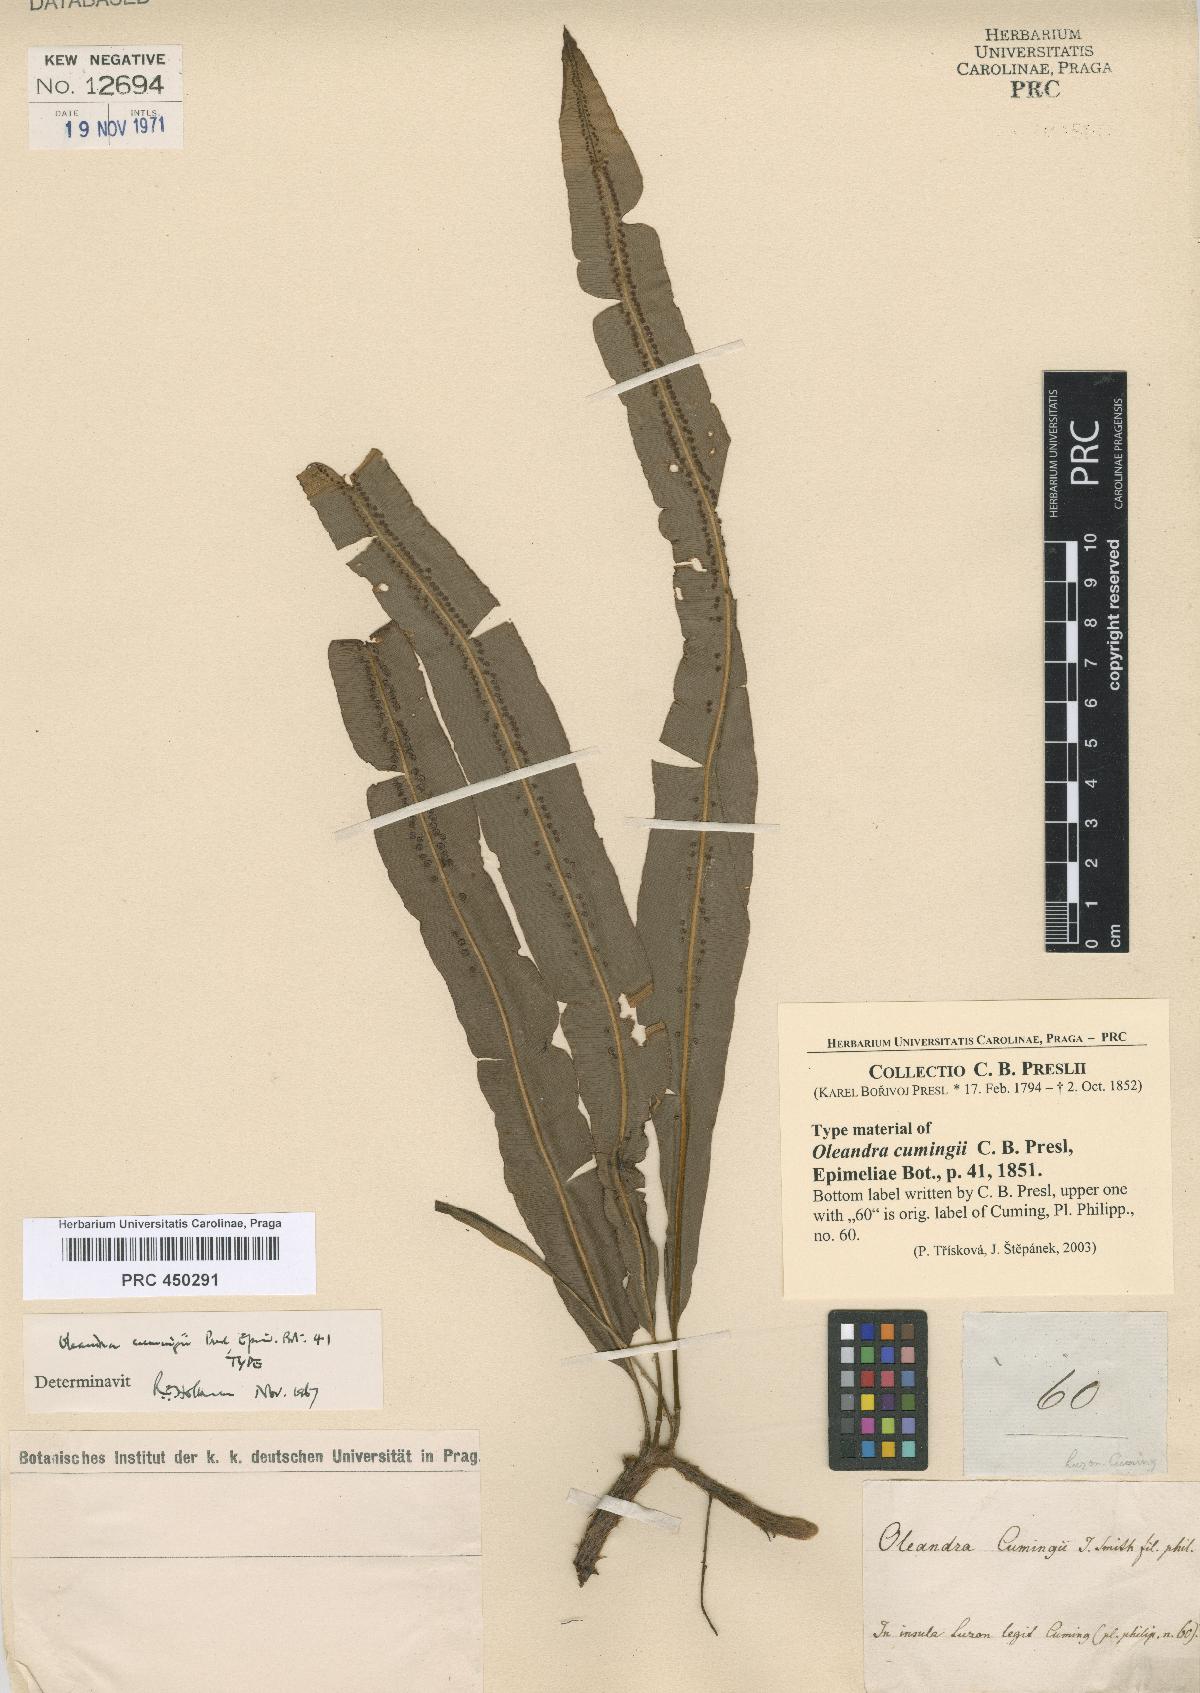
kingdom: Plantae
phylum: Tracheophyta
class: Polypodiopsida
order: Polypodiales
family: Oleandraceae
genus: Oleandra
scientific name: Oleandra cumingii
